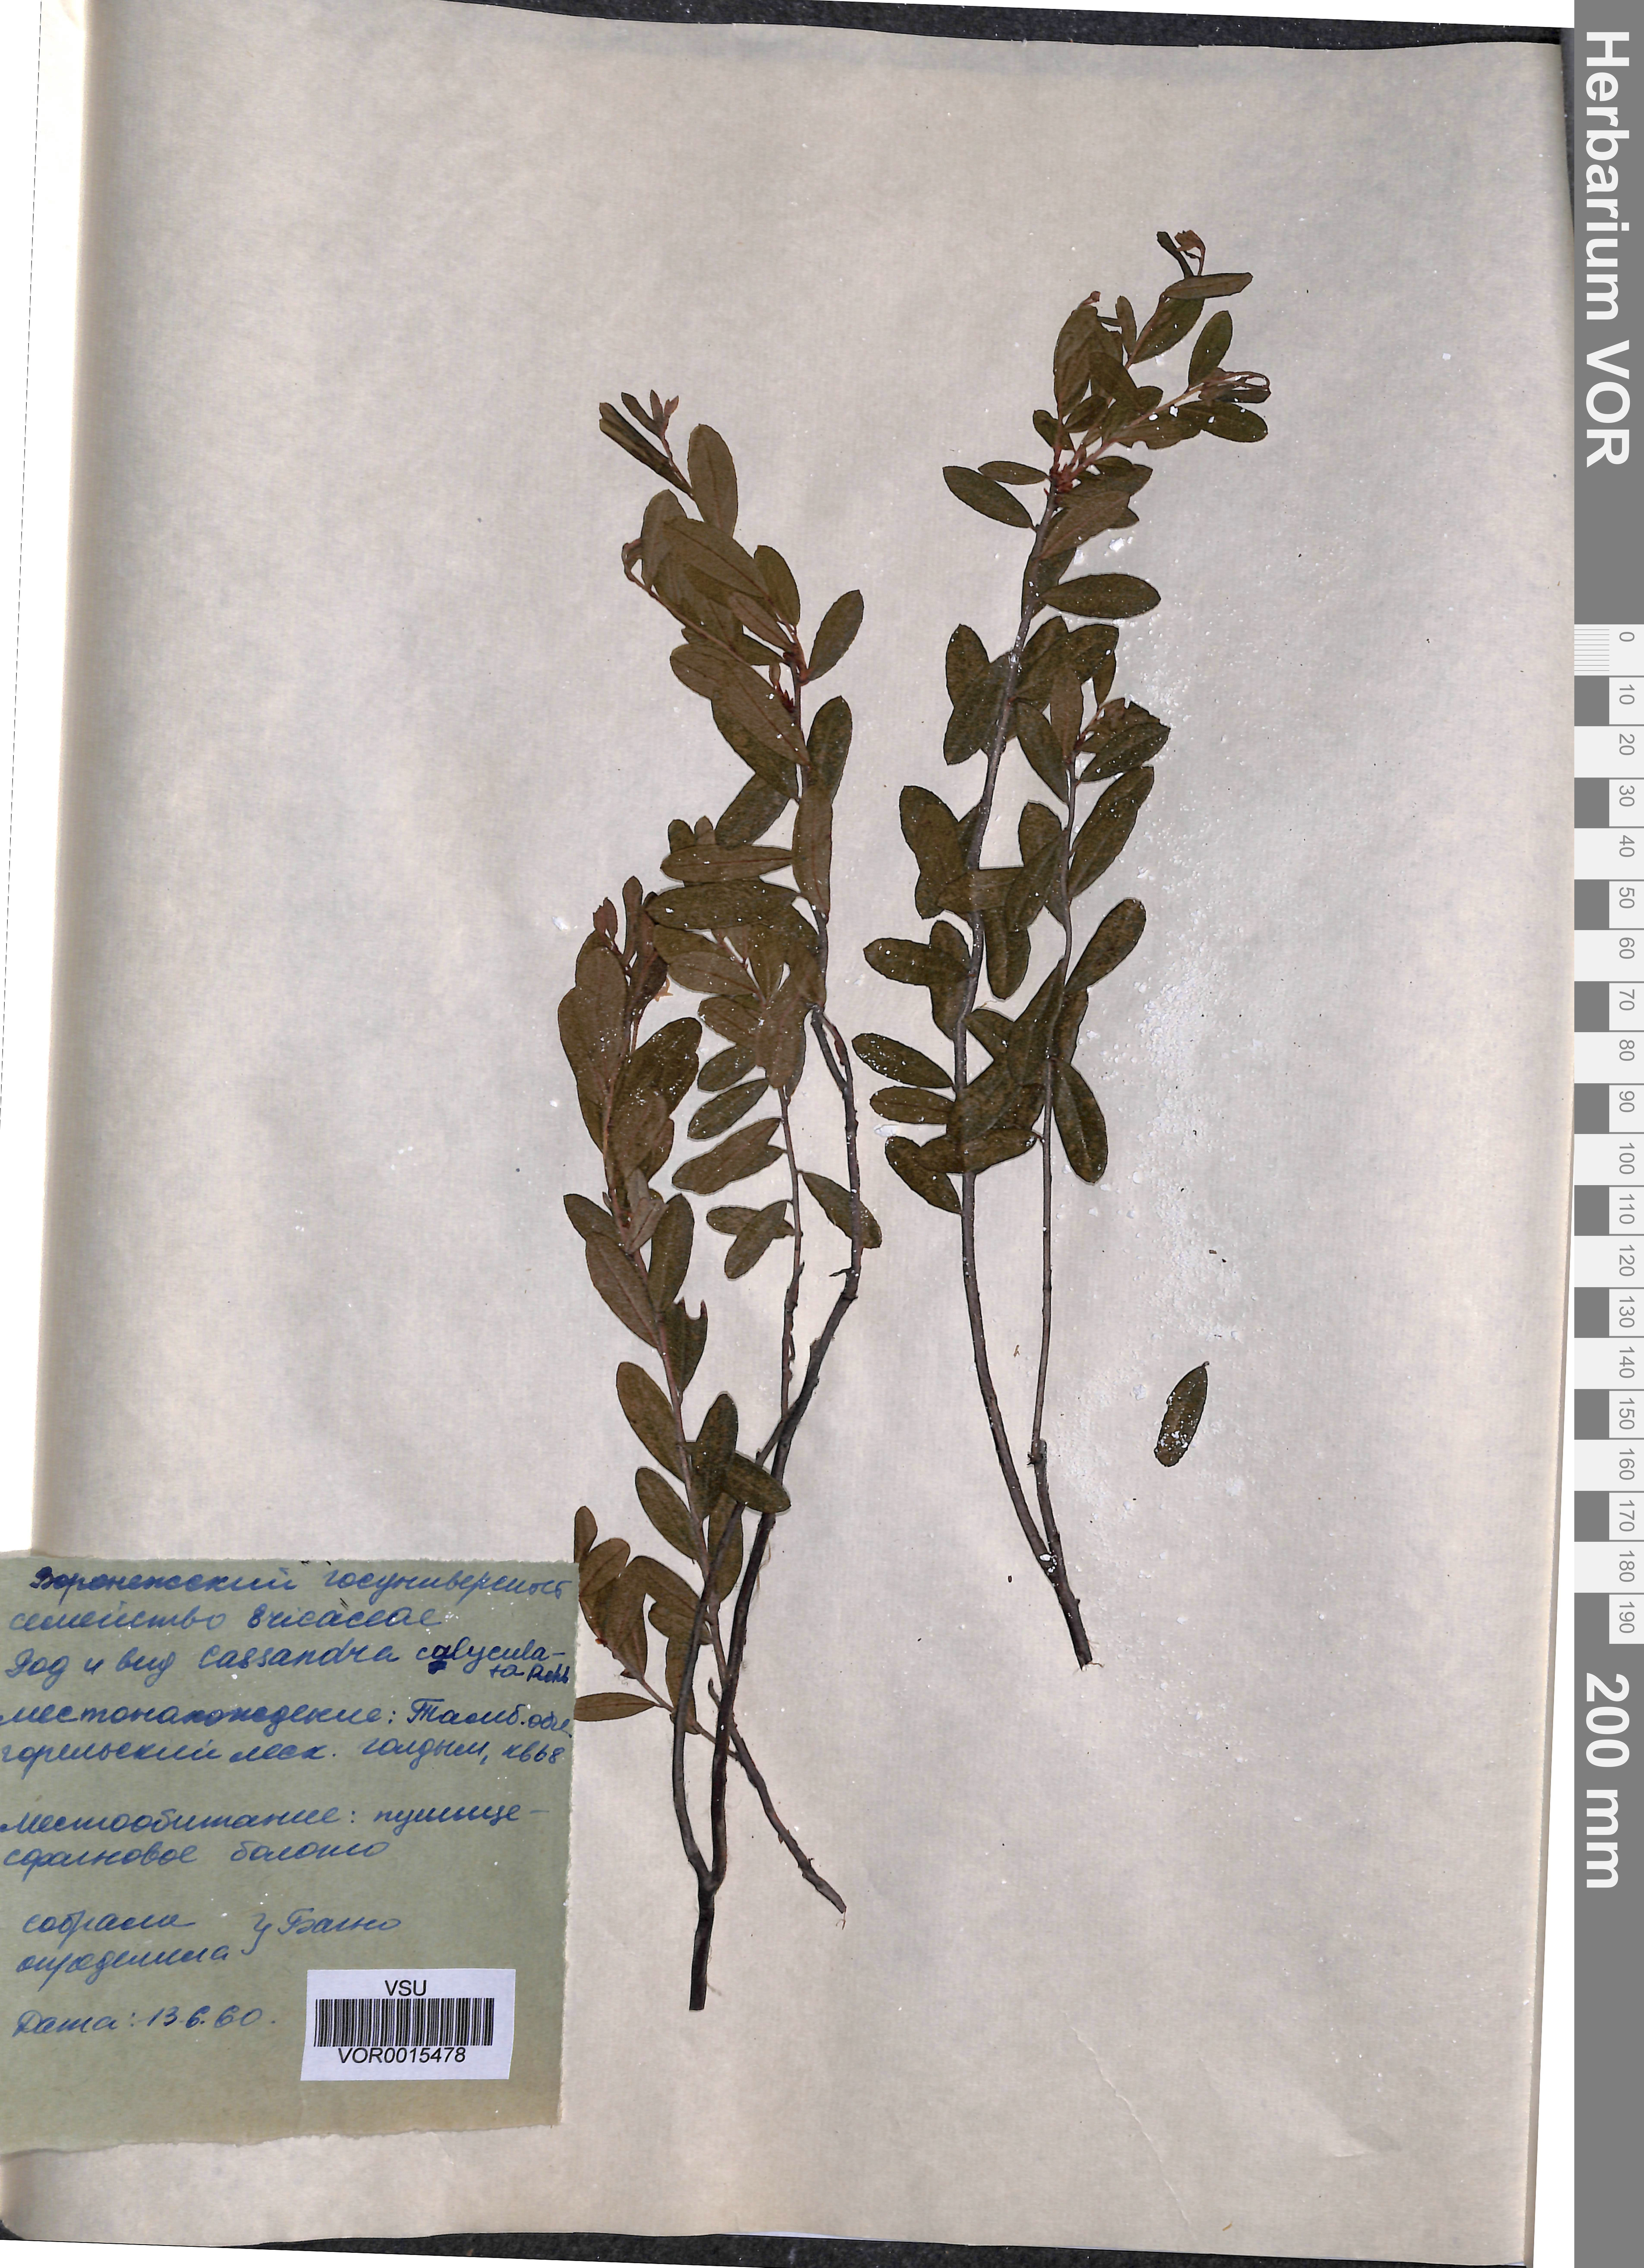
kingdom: Plantae
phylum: Tracheophyta
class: Magnoliopsida
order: Ericales
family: Ericaceae
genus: Chamaedaphne
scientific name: Chamaedaphne calyculata
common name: Leatherleaf
